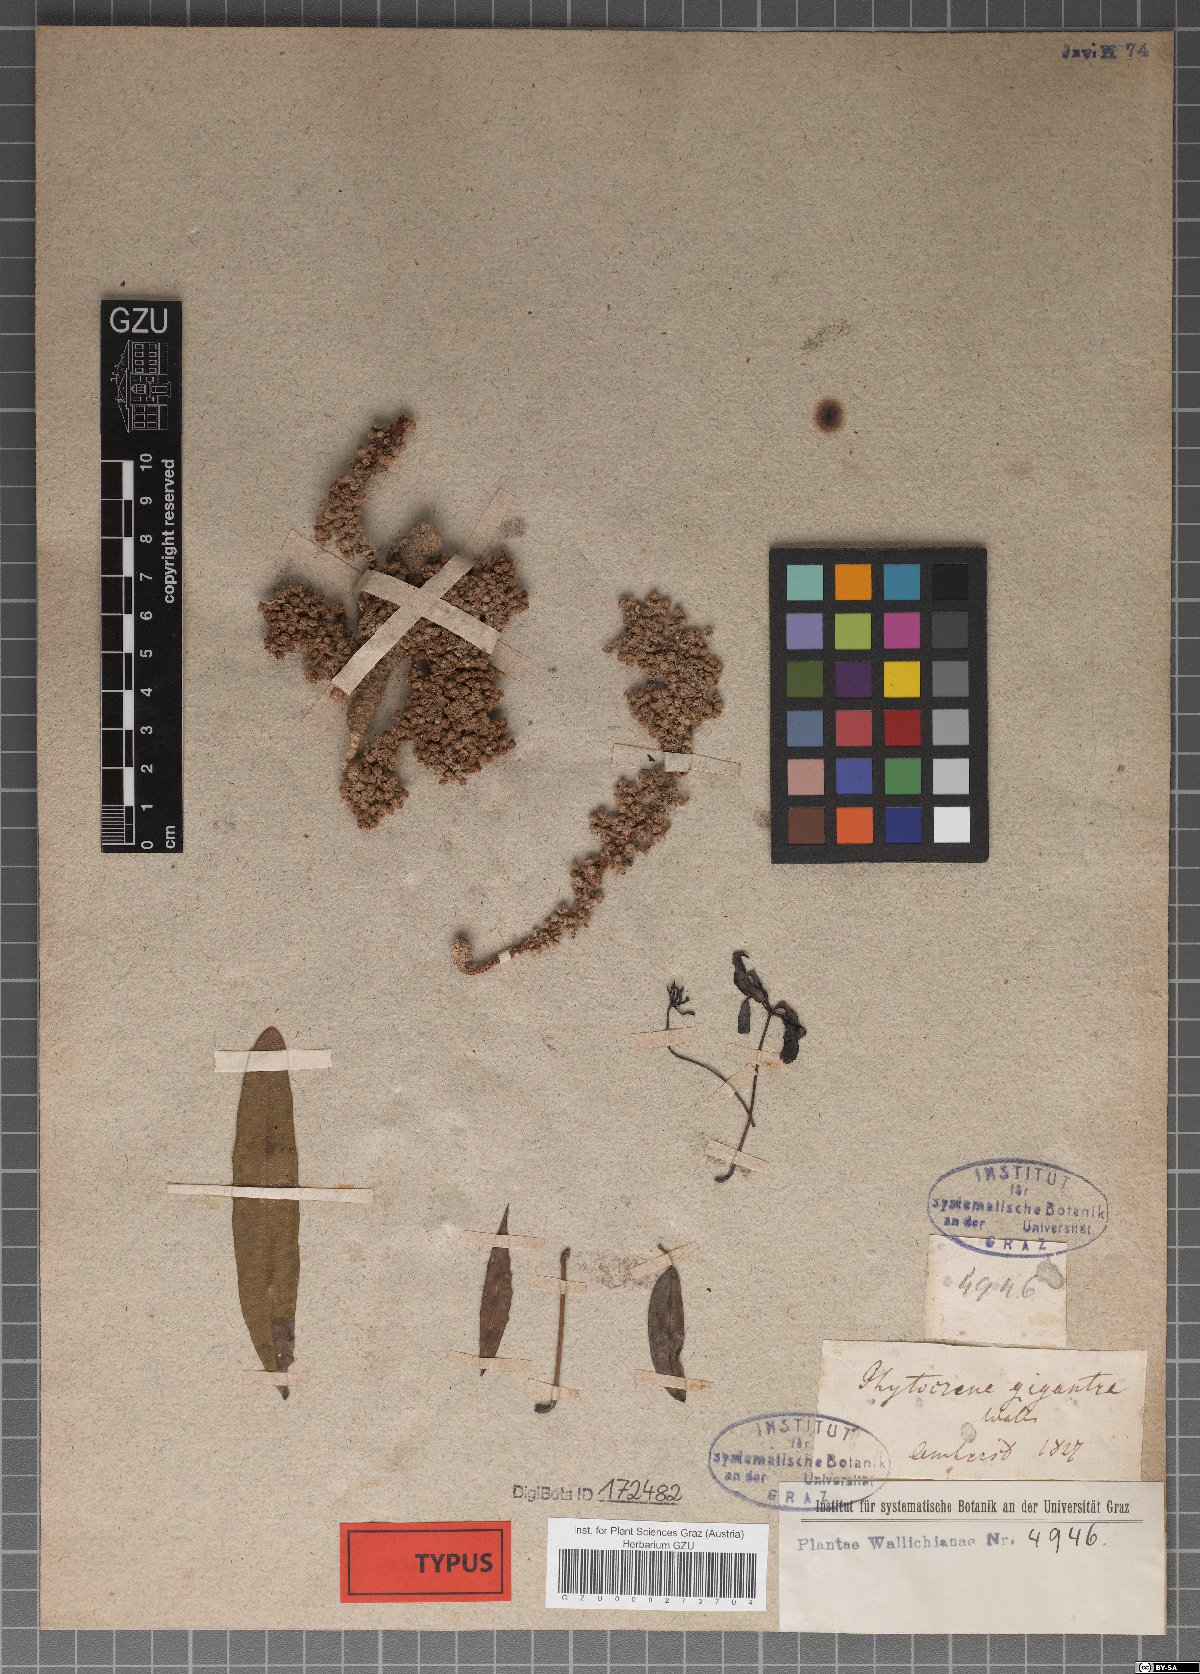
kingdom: Plantae
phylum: Tracheophyta
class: Magnoliopsida
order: Icacinales
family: Icacinaceae
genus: Phytocrene
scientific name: Phytocrene macrophylla
